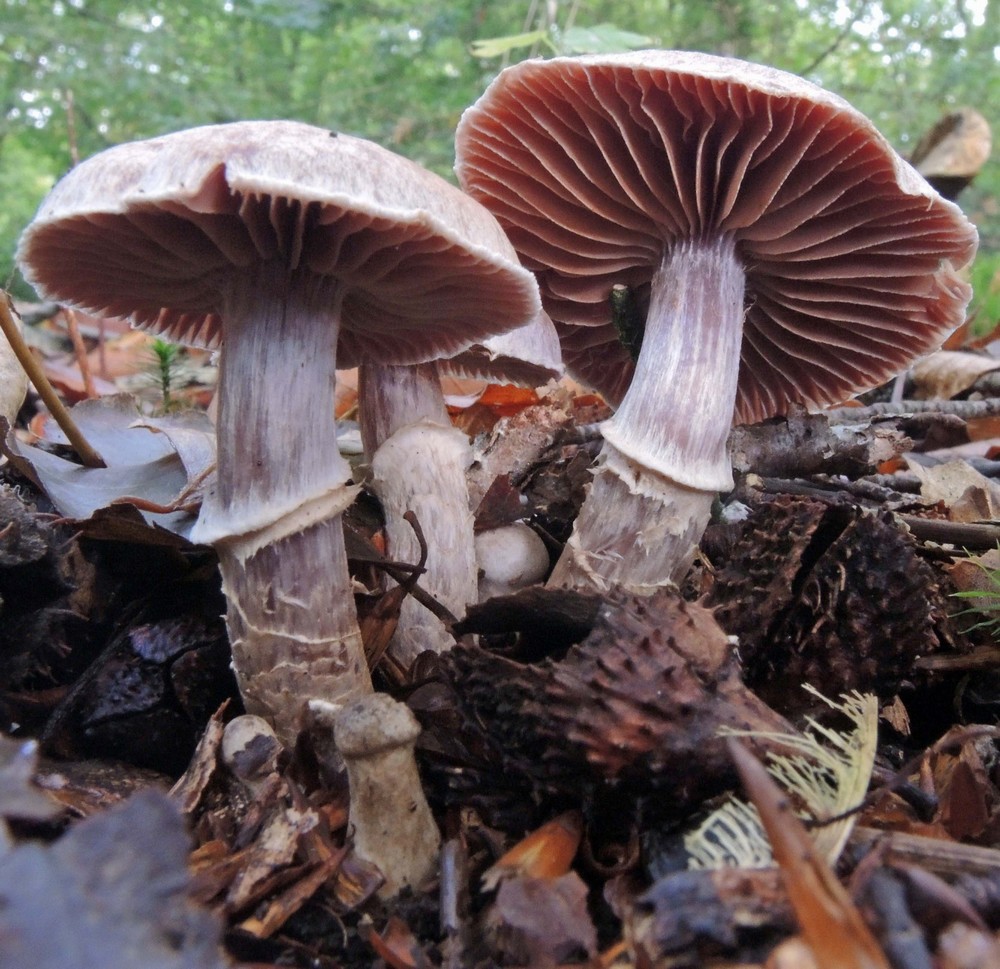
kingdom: Fungi
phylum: Basidiomycota
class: Agaricomycetes
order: Agaricales
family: Cortinariaceae
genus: Cortinarius
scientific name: Cortinarius torvus
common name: champignonagtig slørhat
